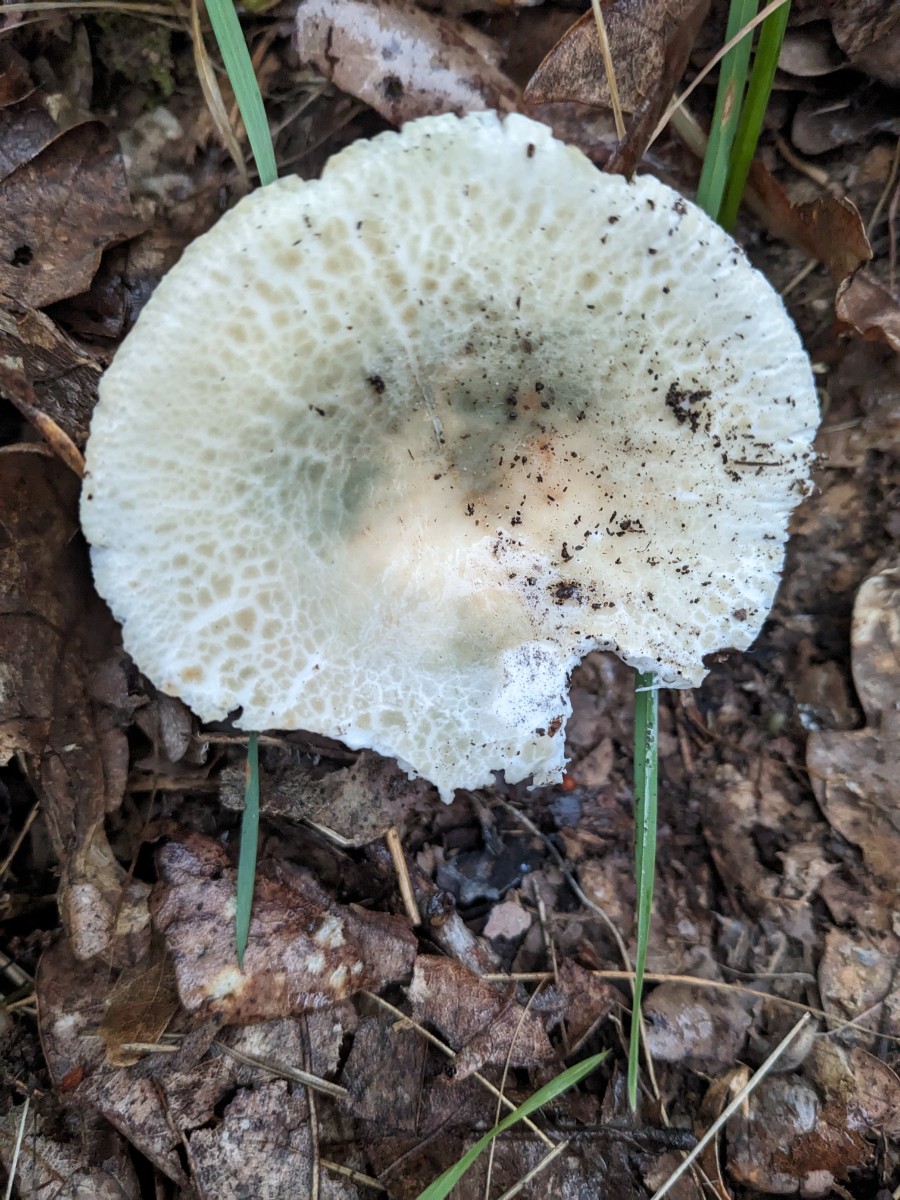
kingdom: Fungi
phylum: Basidiomycota
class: Agaricomycetes
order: Russulales
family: Russulaceae
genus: Russula
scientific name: Russula virescens
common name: spanskgrøn skørhat
